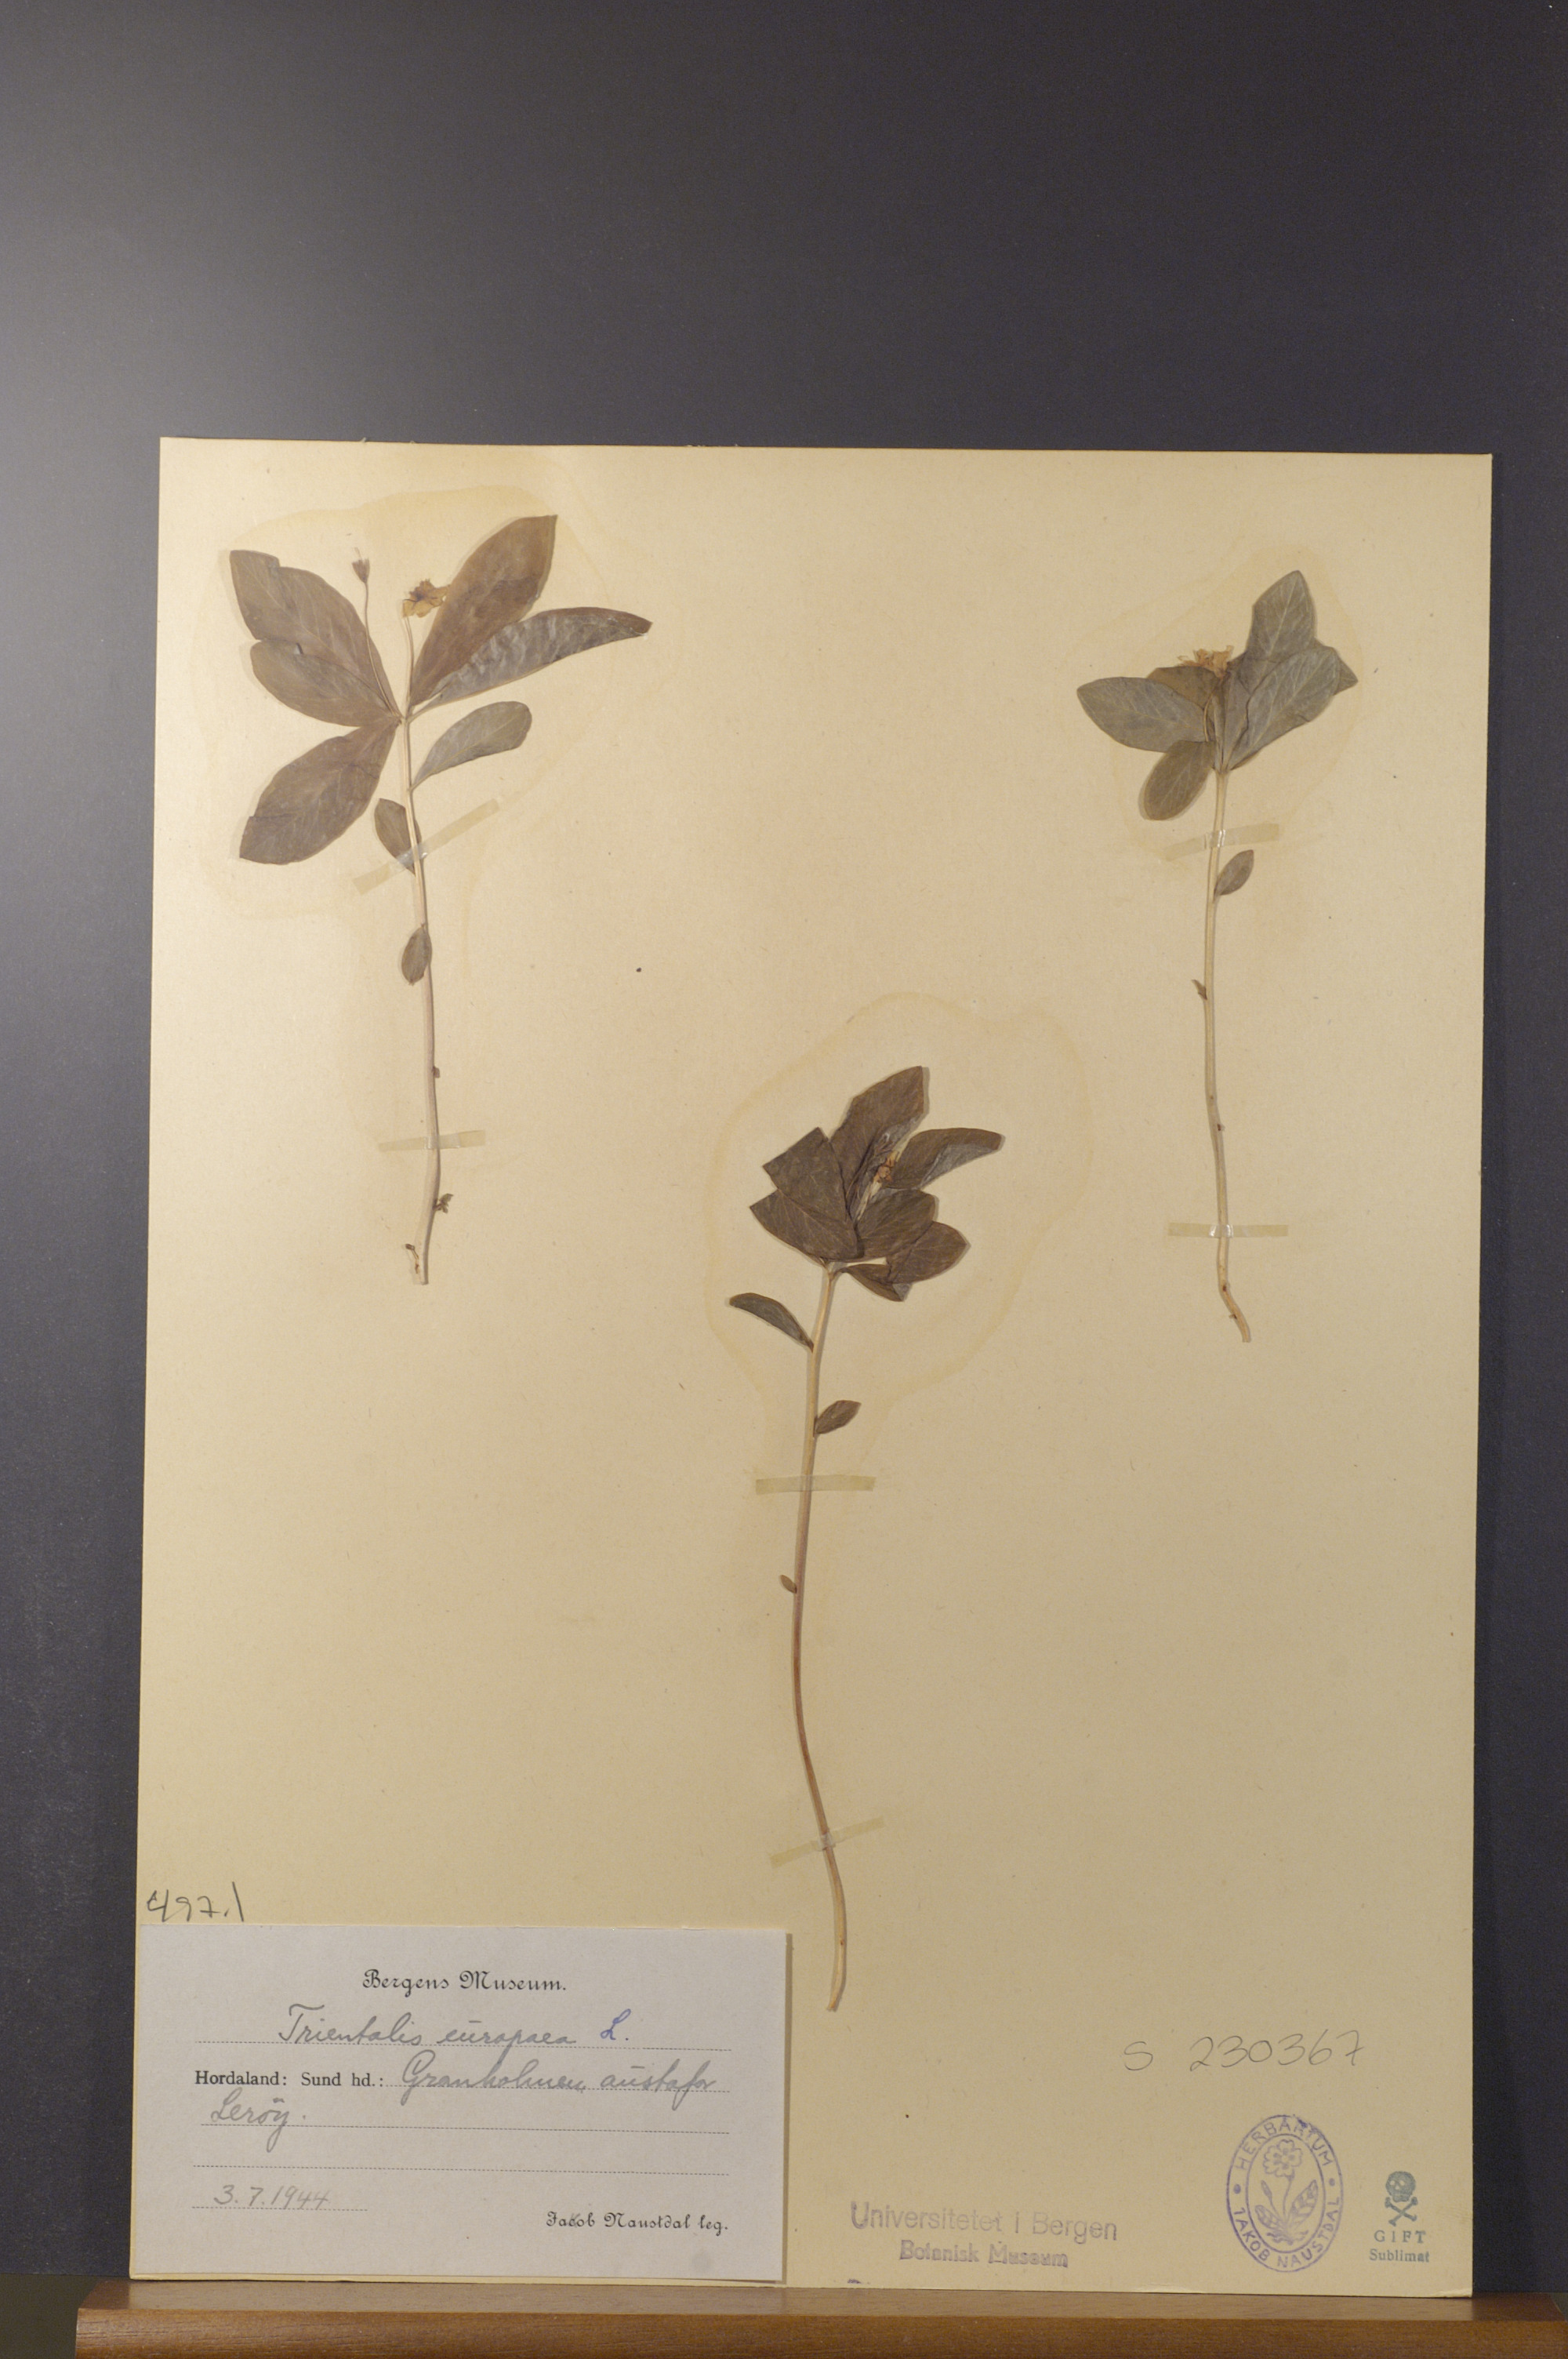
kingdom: Plantae
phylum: Tracheophyta
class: Magnoliopsida
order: Ericales
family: Primulaceae
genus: Lysimachia
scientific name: Lysimachia europaea
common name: Arctic starflower
